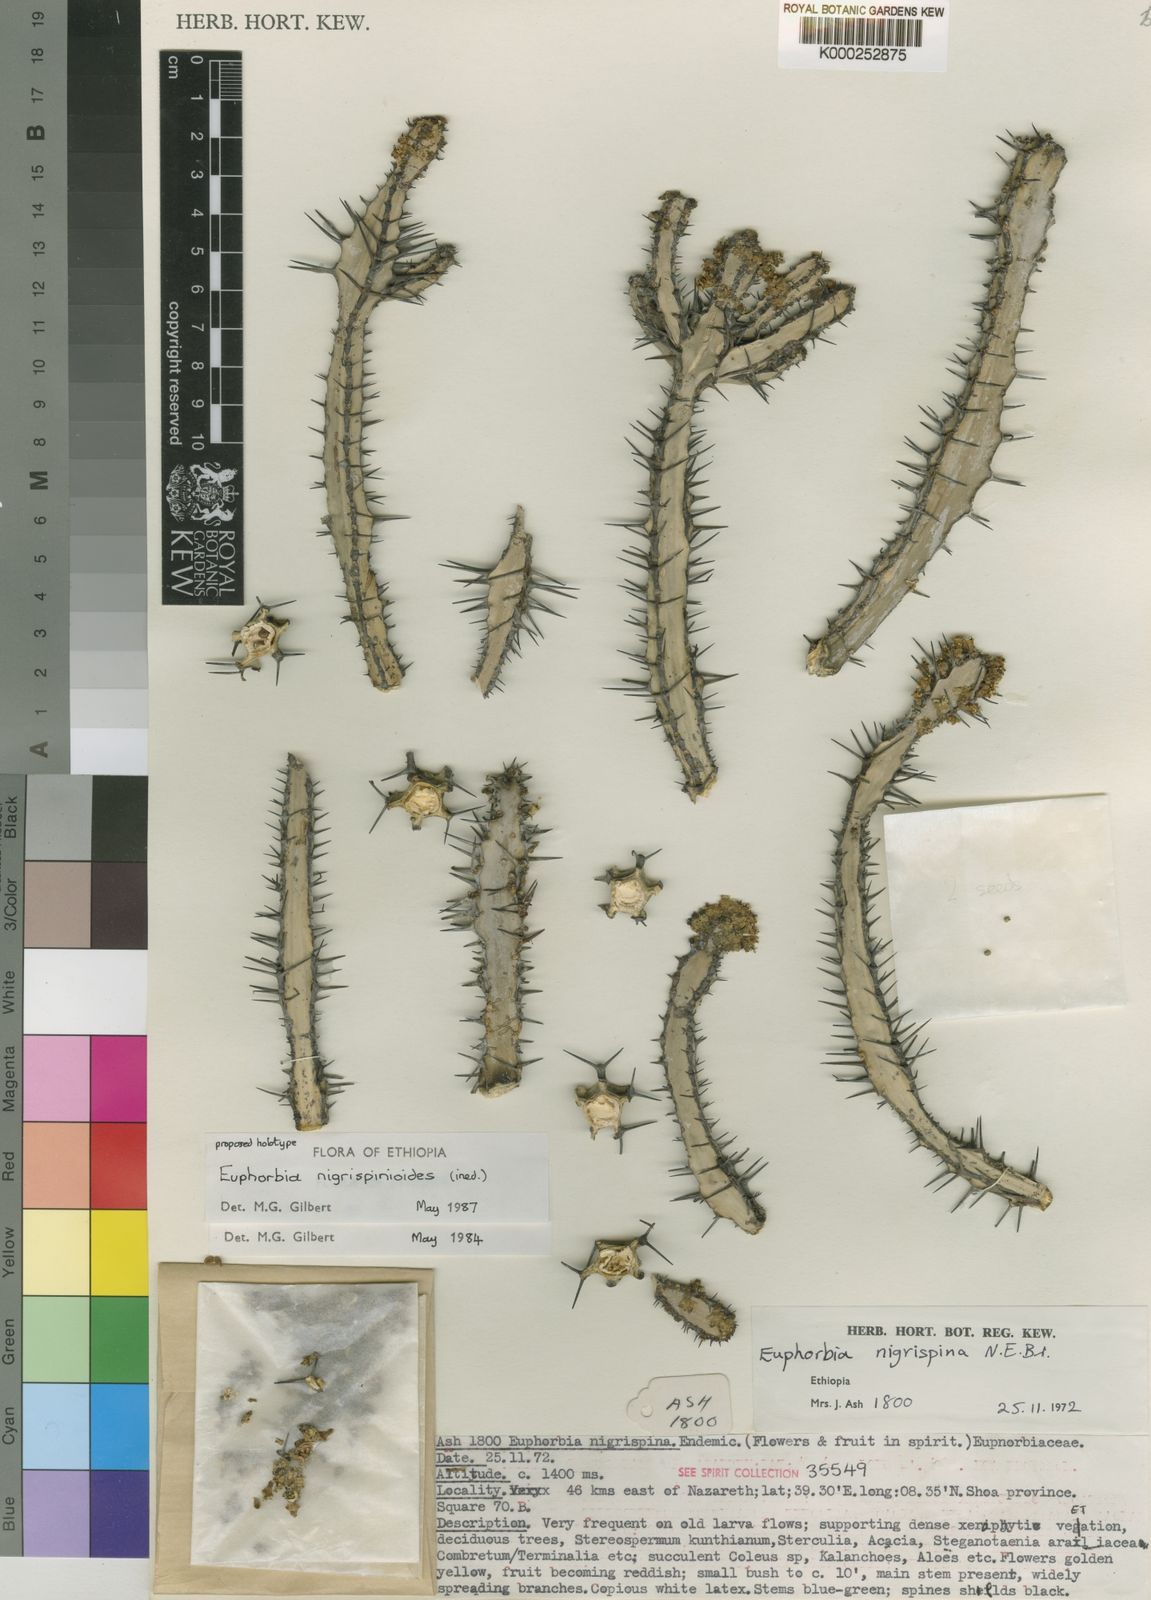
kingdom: Plantae
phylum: Tracheophyta
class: Magnoliopsida
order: Malpighiales
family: Euphorbiaceae
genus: Euphorbia
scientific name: Euphorbia nigrispinoides
